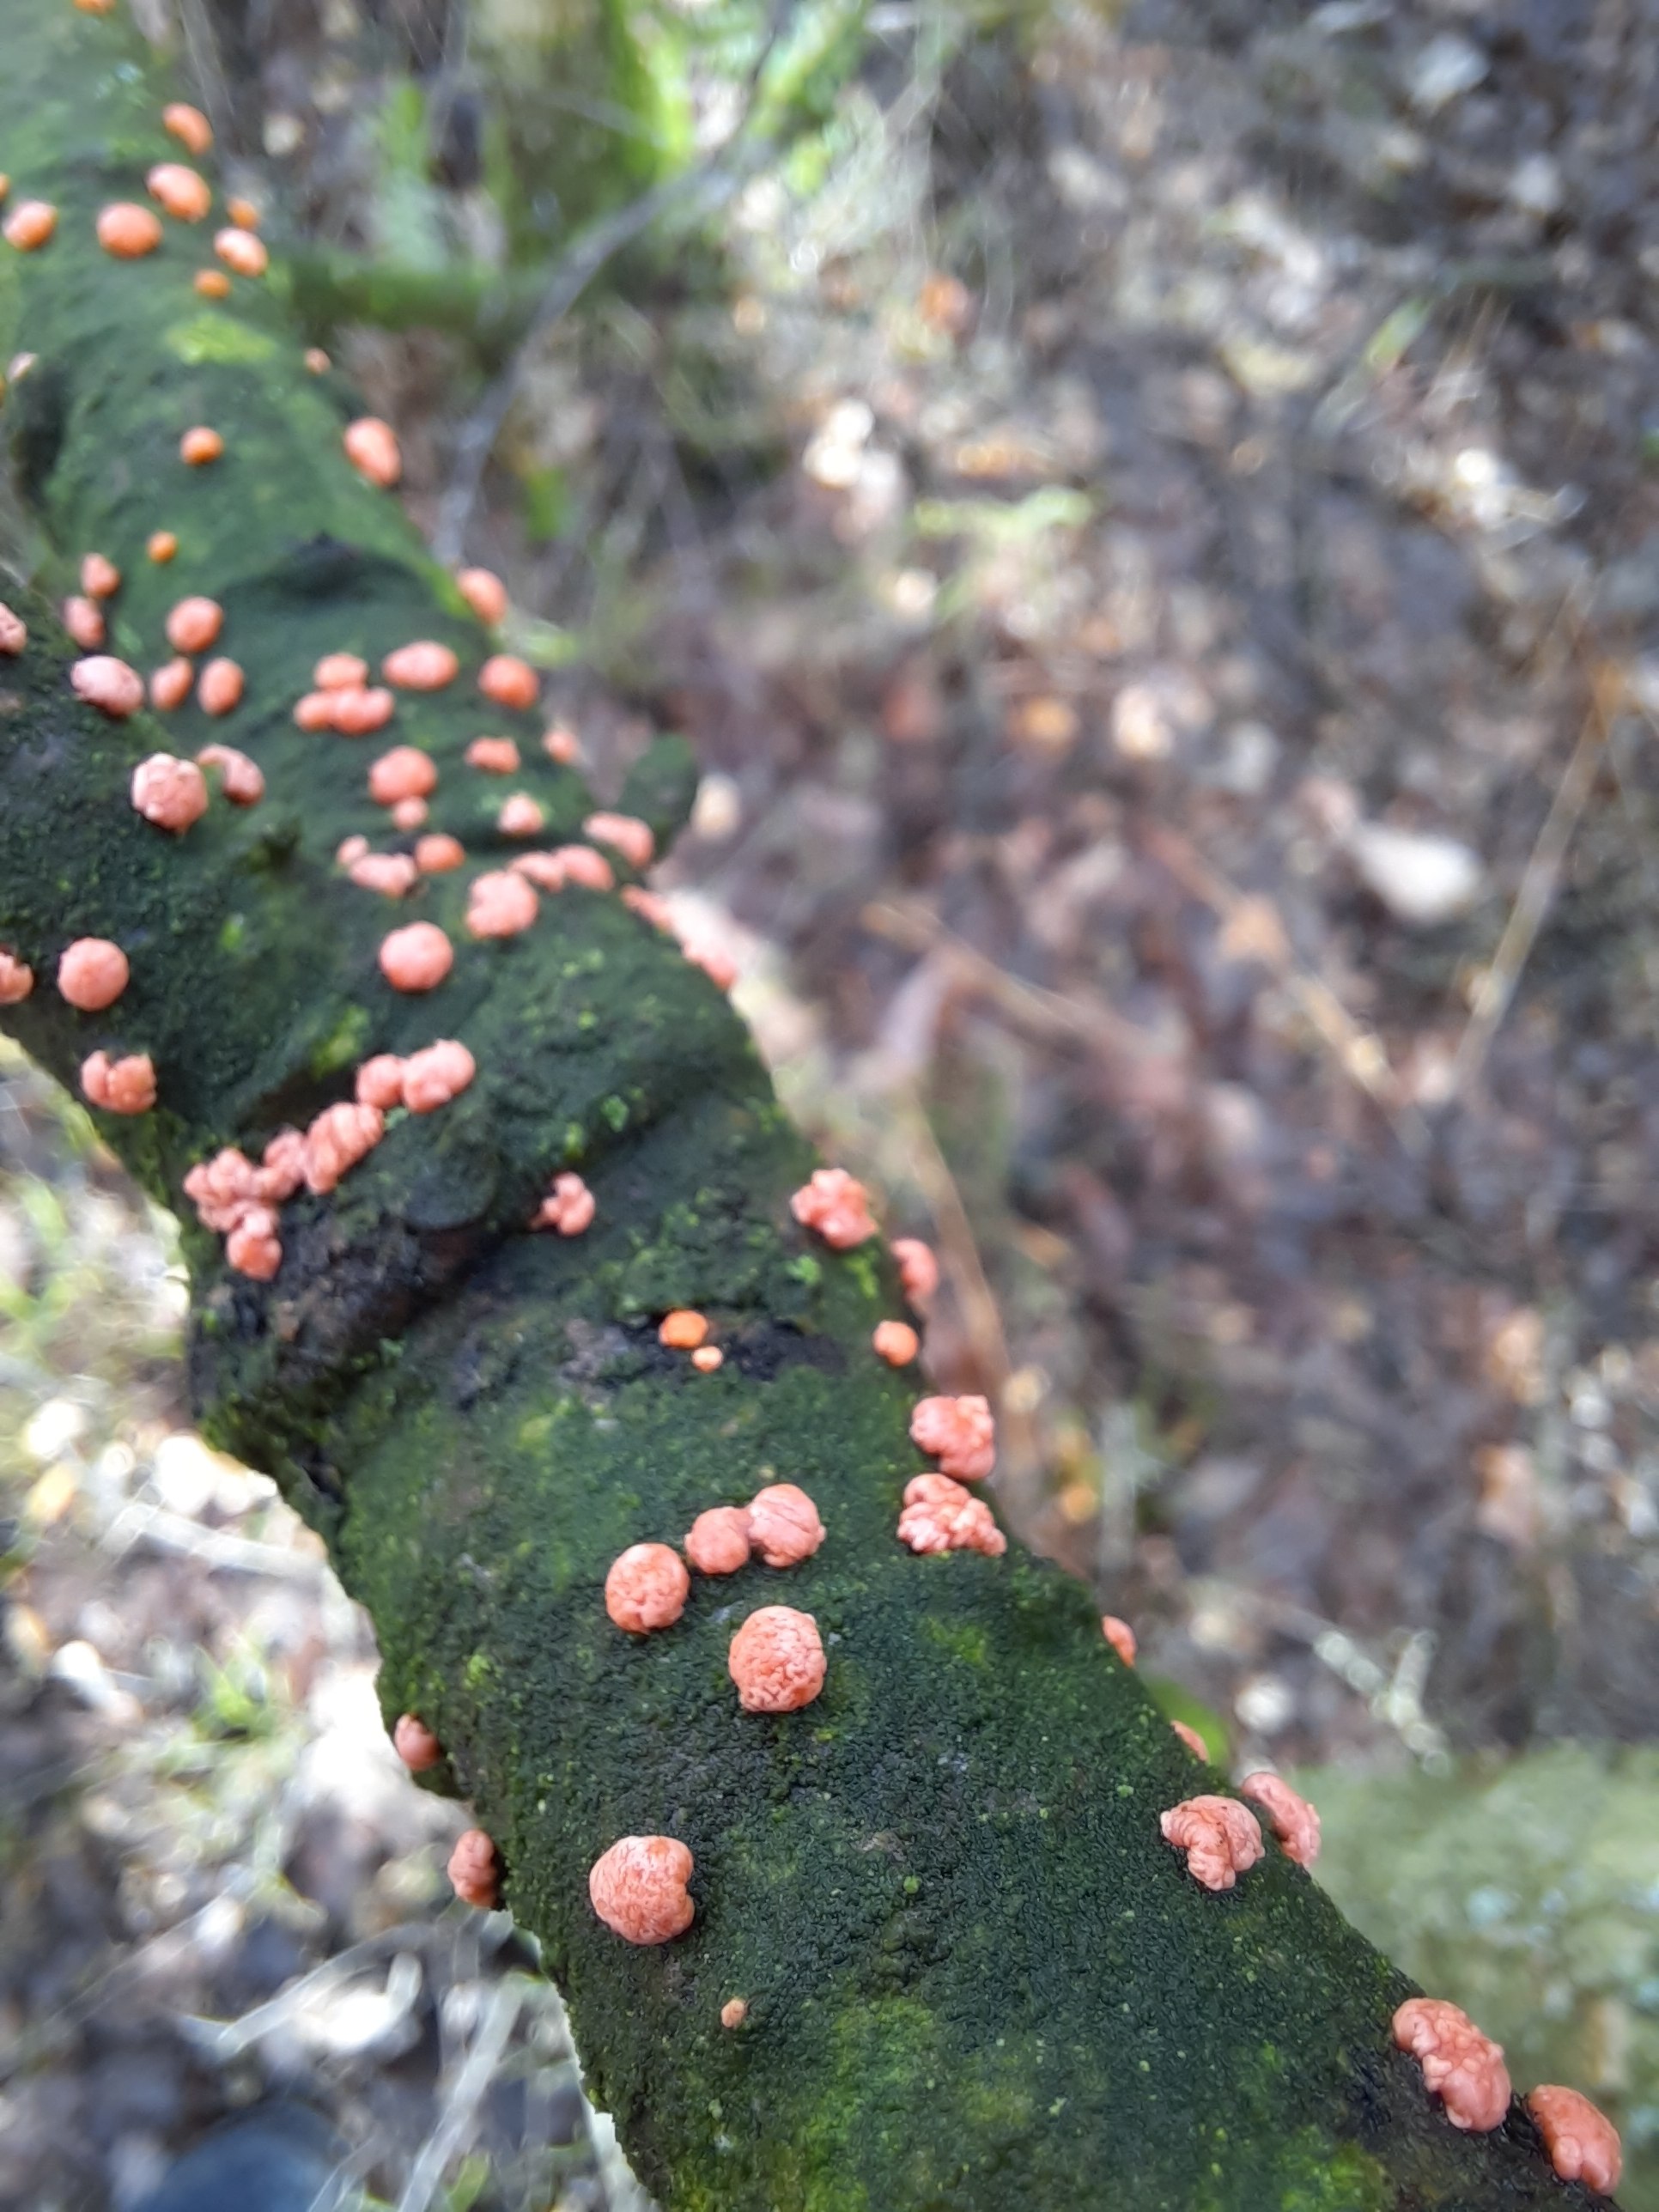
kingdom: Fungi
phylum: Ascomycota
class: Sordariomycetes
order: Hypocreales
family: Nectriaceae
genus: Nectria
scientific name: Nectria cinnabarina
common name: almindelig cinnobersvamp
